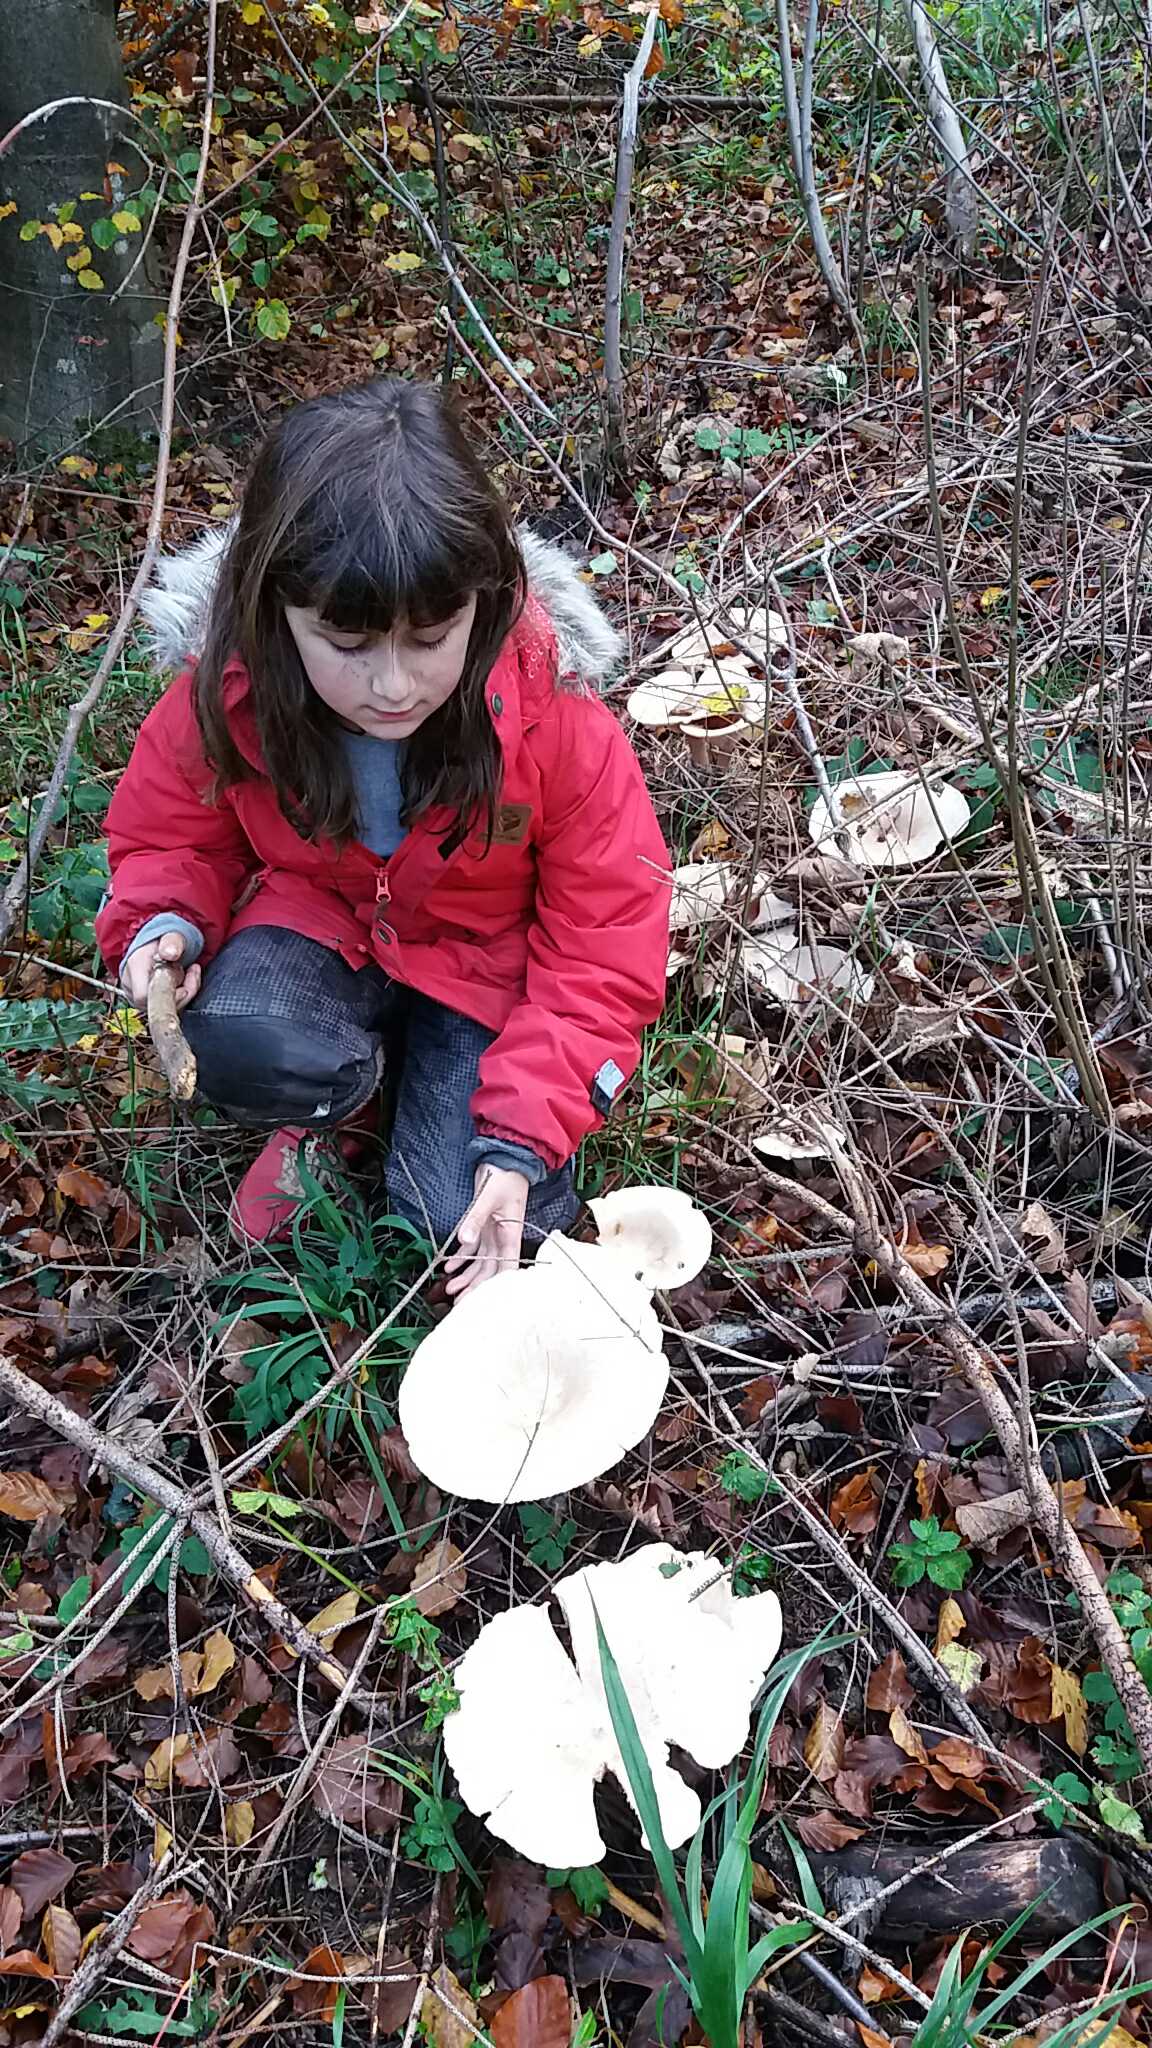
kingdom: Fungi
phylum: Basidiomycota
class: Agaricomycetes
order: Agaricales
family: Tricholomataceae
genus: Infundibulicybe
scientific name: Infundibulicybe geotropa
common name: stor tragthat
